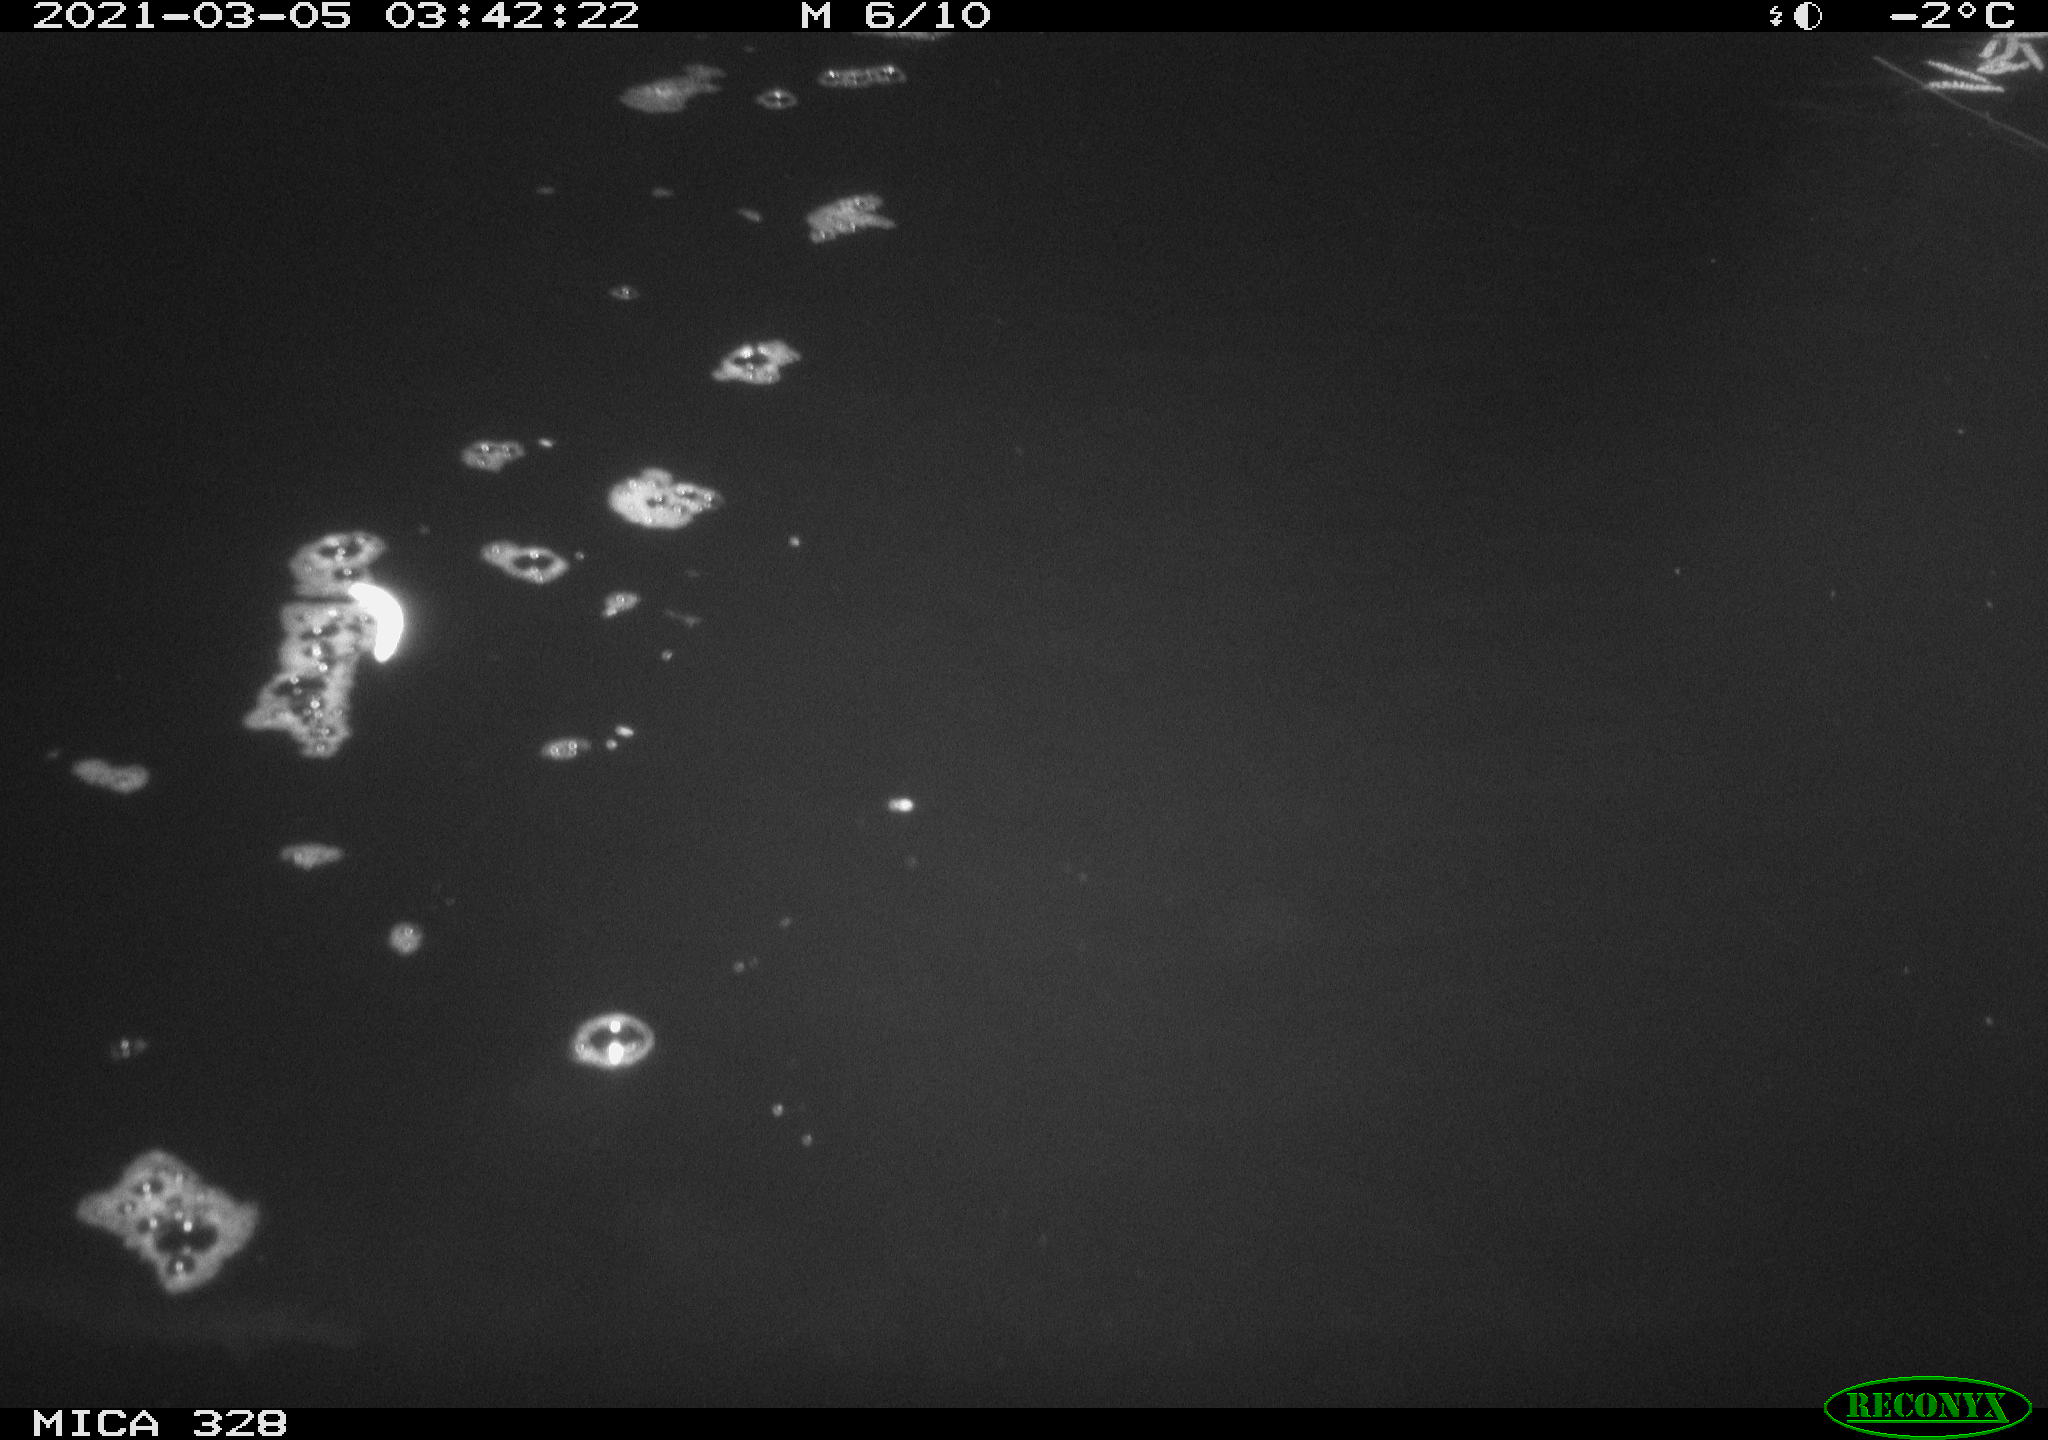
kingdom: Animalia
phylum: Chordata
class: Mammalia
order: Rodentia
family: Cricetidae
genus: Ondatra
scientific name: Ondatra zibethicus
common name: Muskrat
